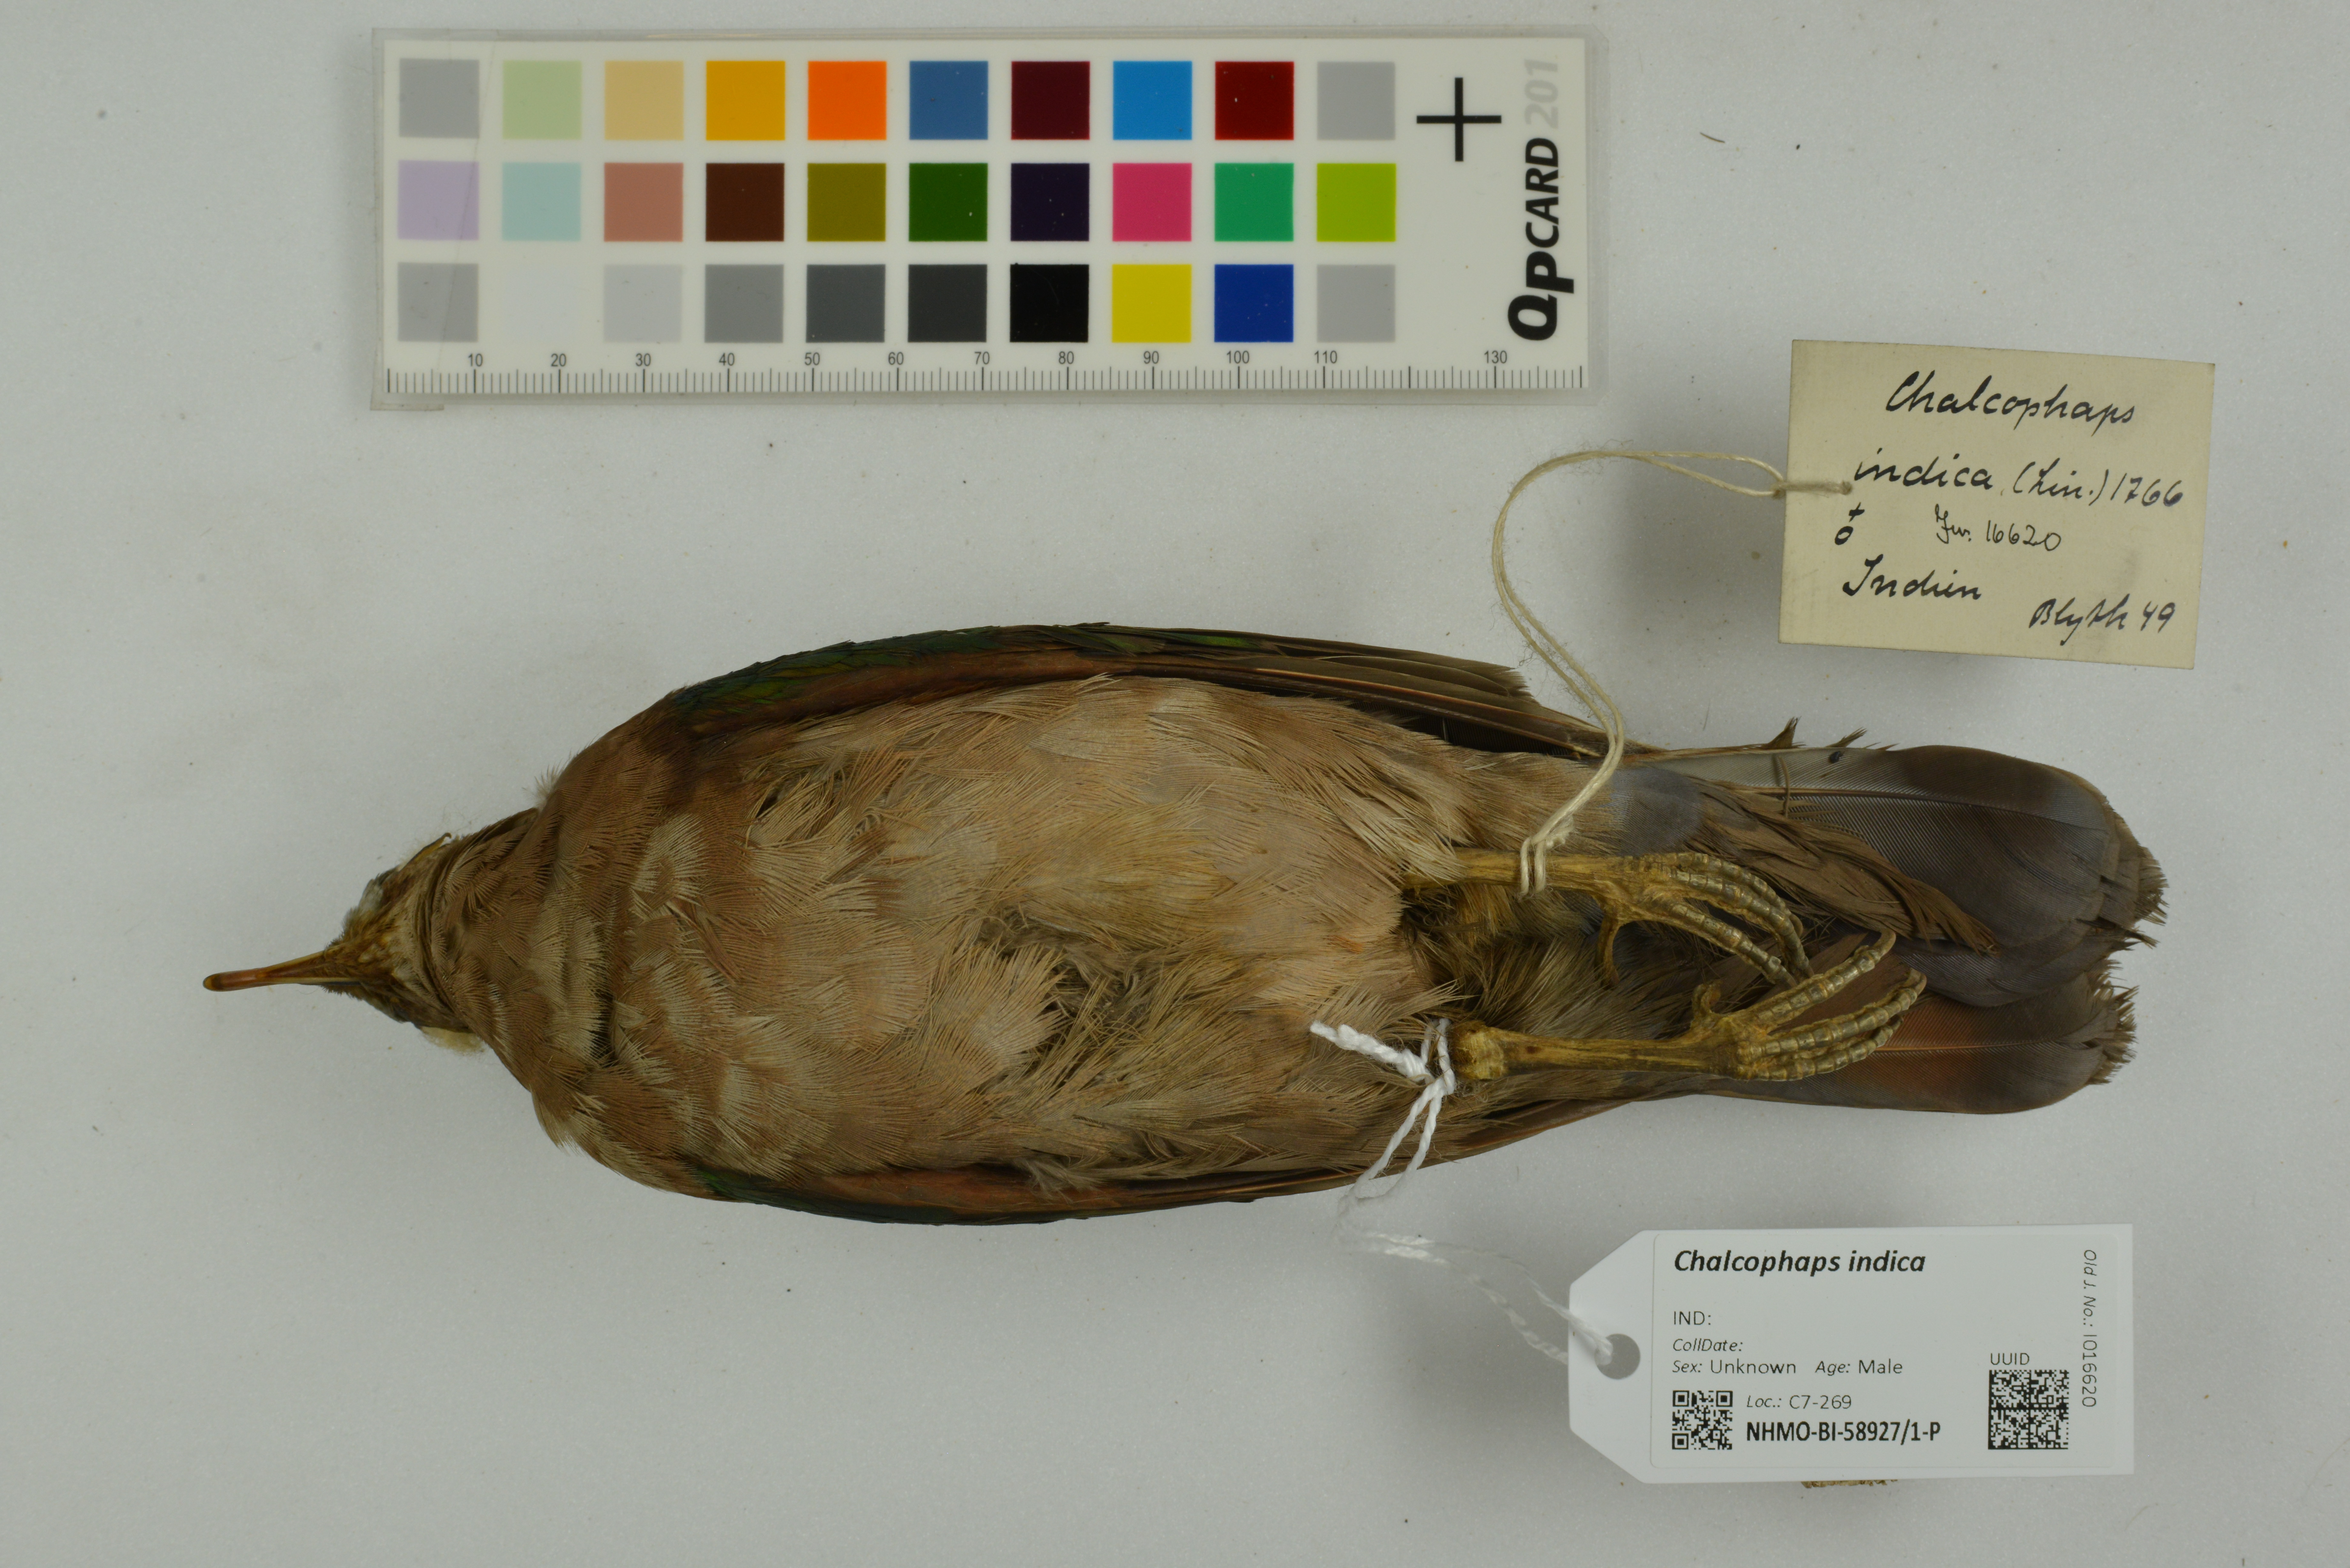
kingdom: Animalia
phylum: Chordata
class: Aves
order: Columbiformes
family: Columbidae
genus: Chalcophaps
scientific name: Chalcophaps indica
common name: Common emerald dove
